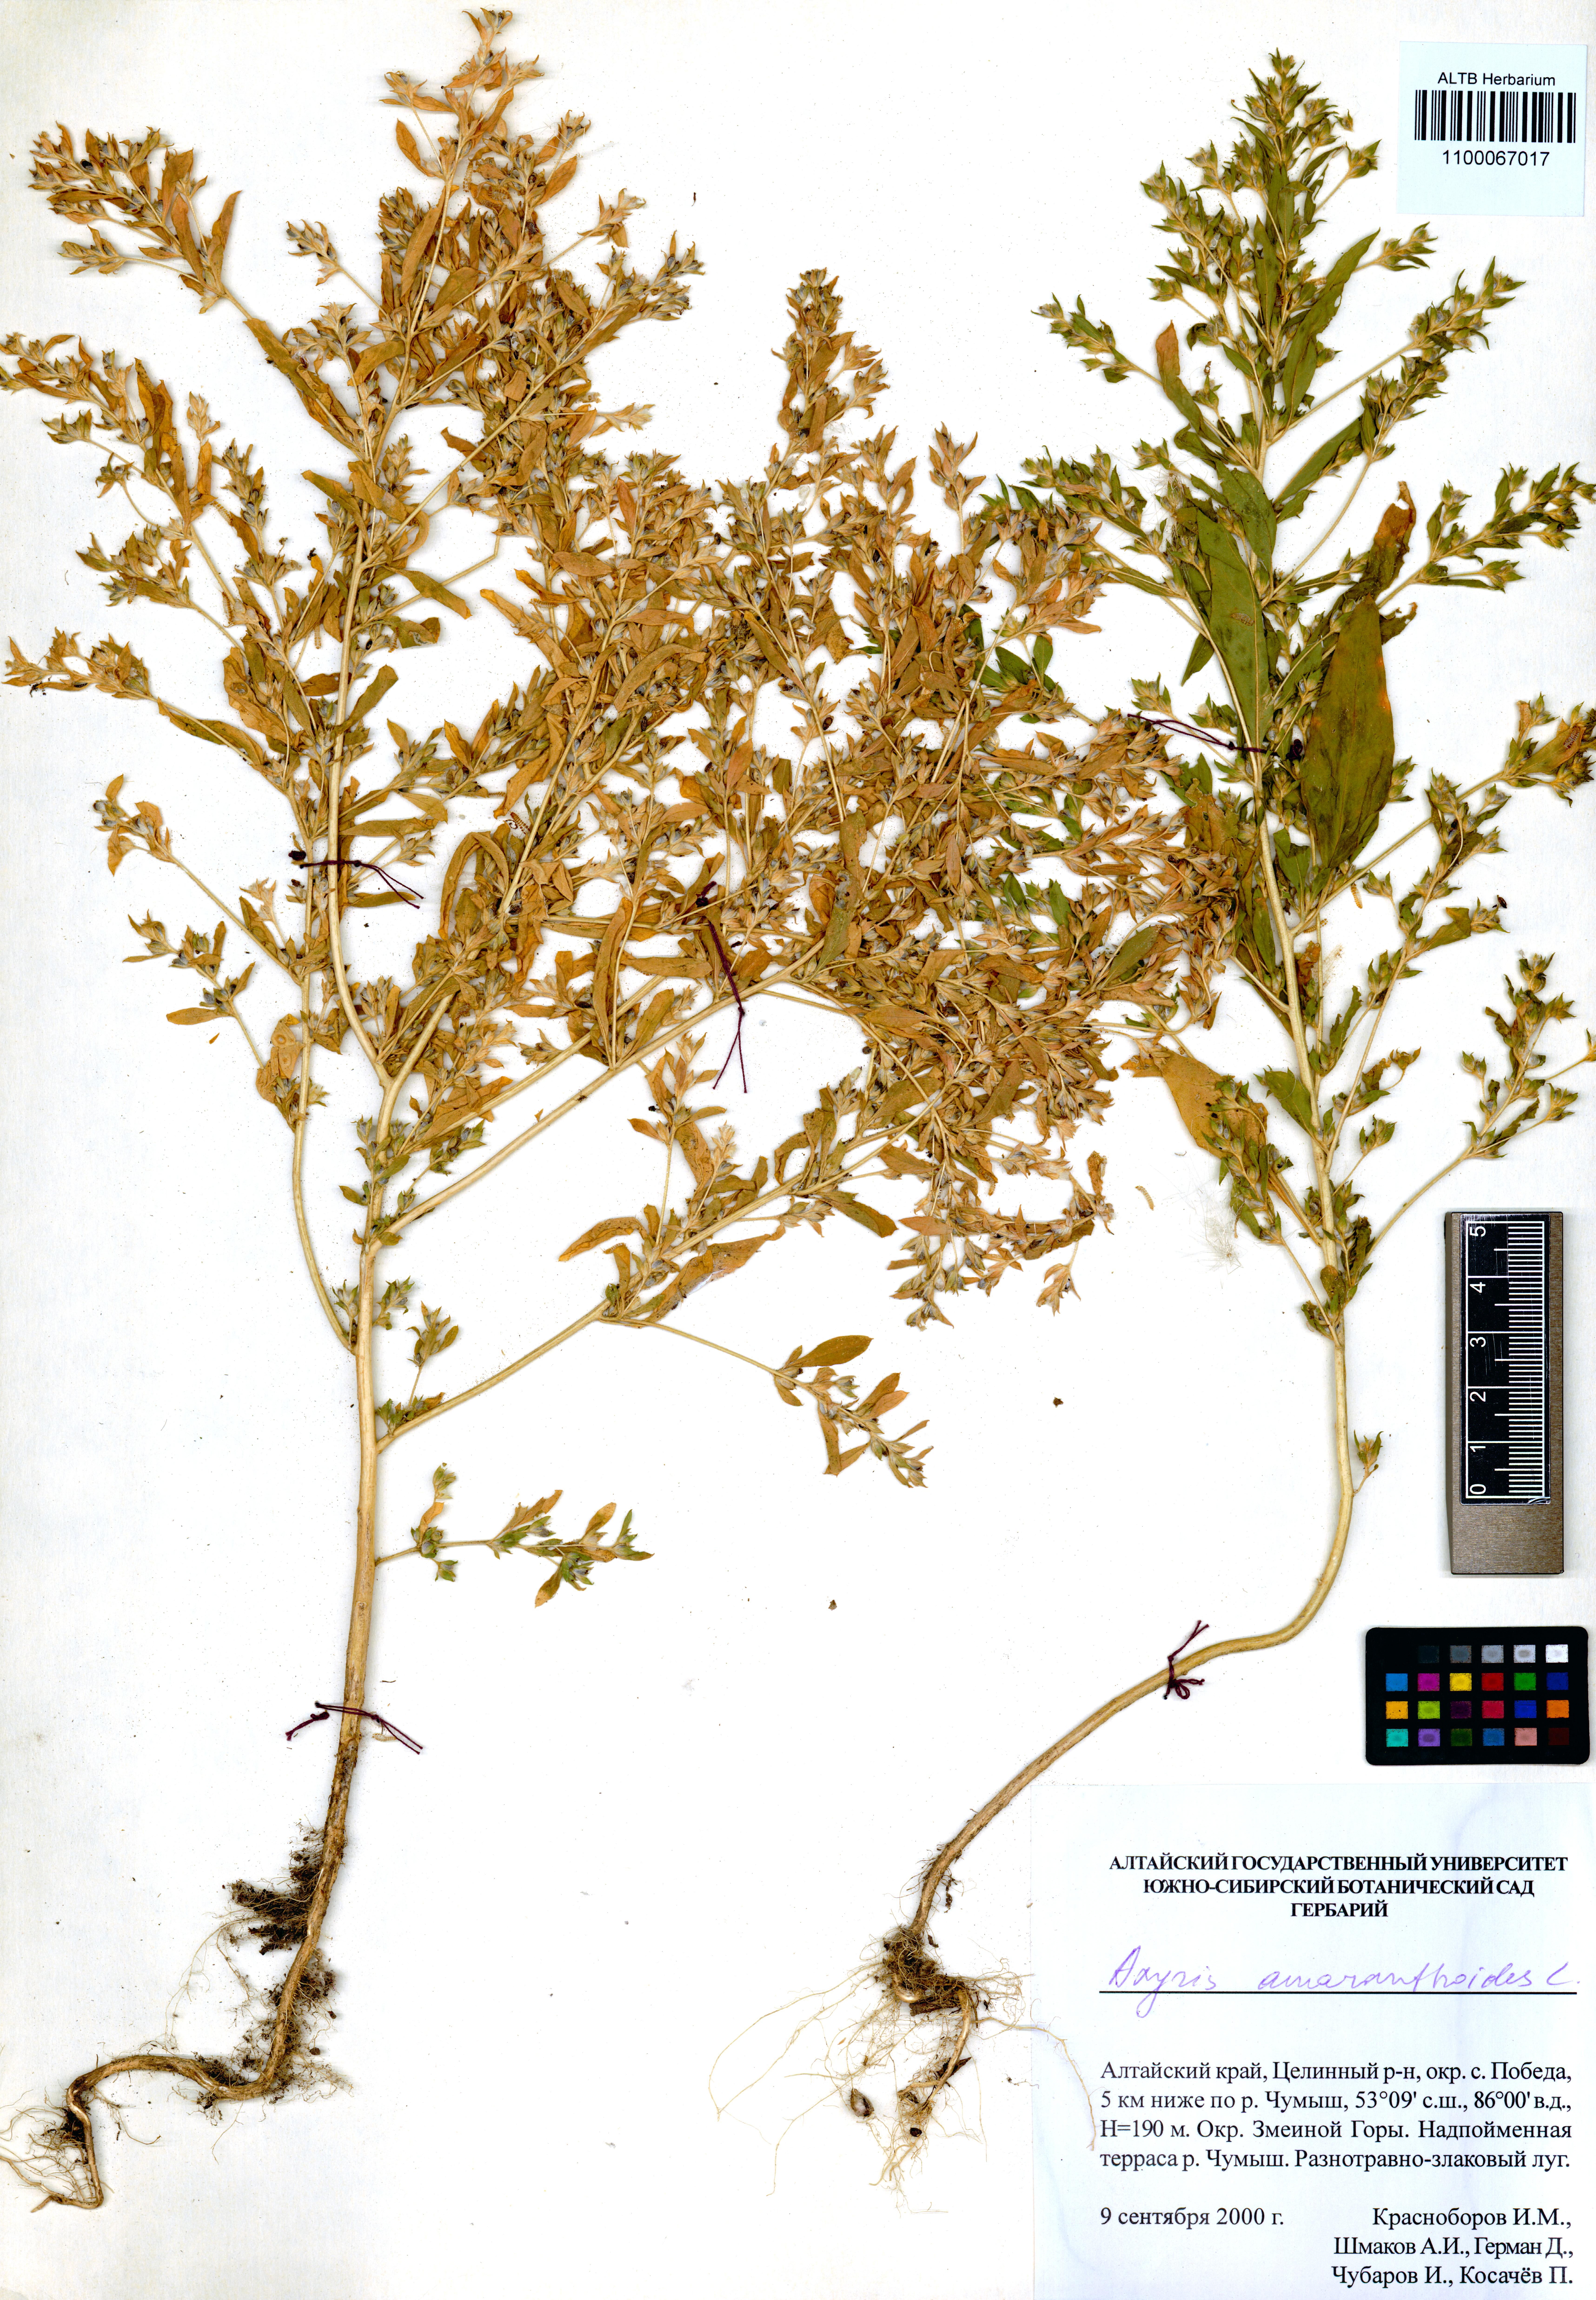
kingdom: Plantae
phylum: Tracheophyta
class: Magnoliopsida
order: Caryophyllales
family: Amaranthaceae
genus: Axyris
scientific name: Axyris amaranthoides
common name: Russian pigweed
